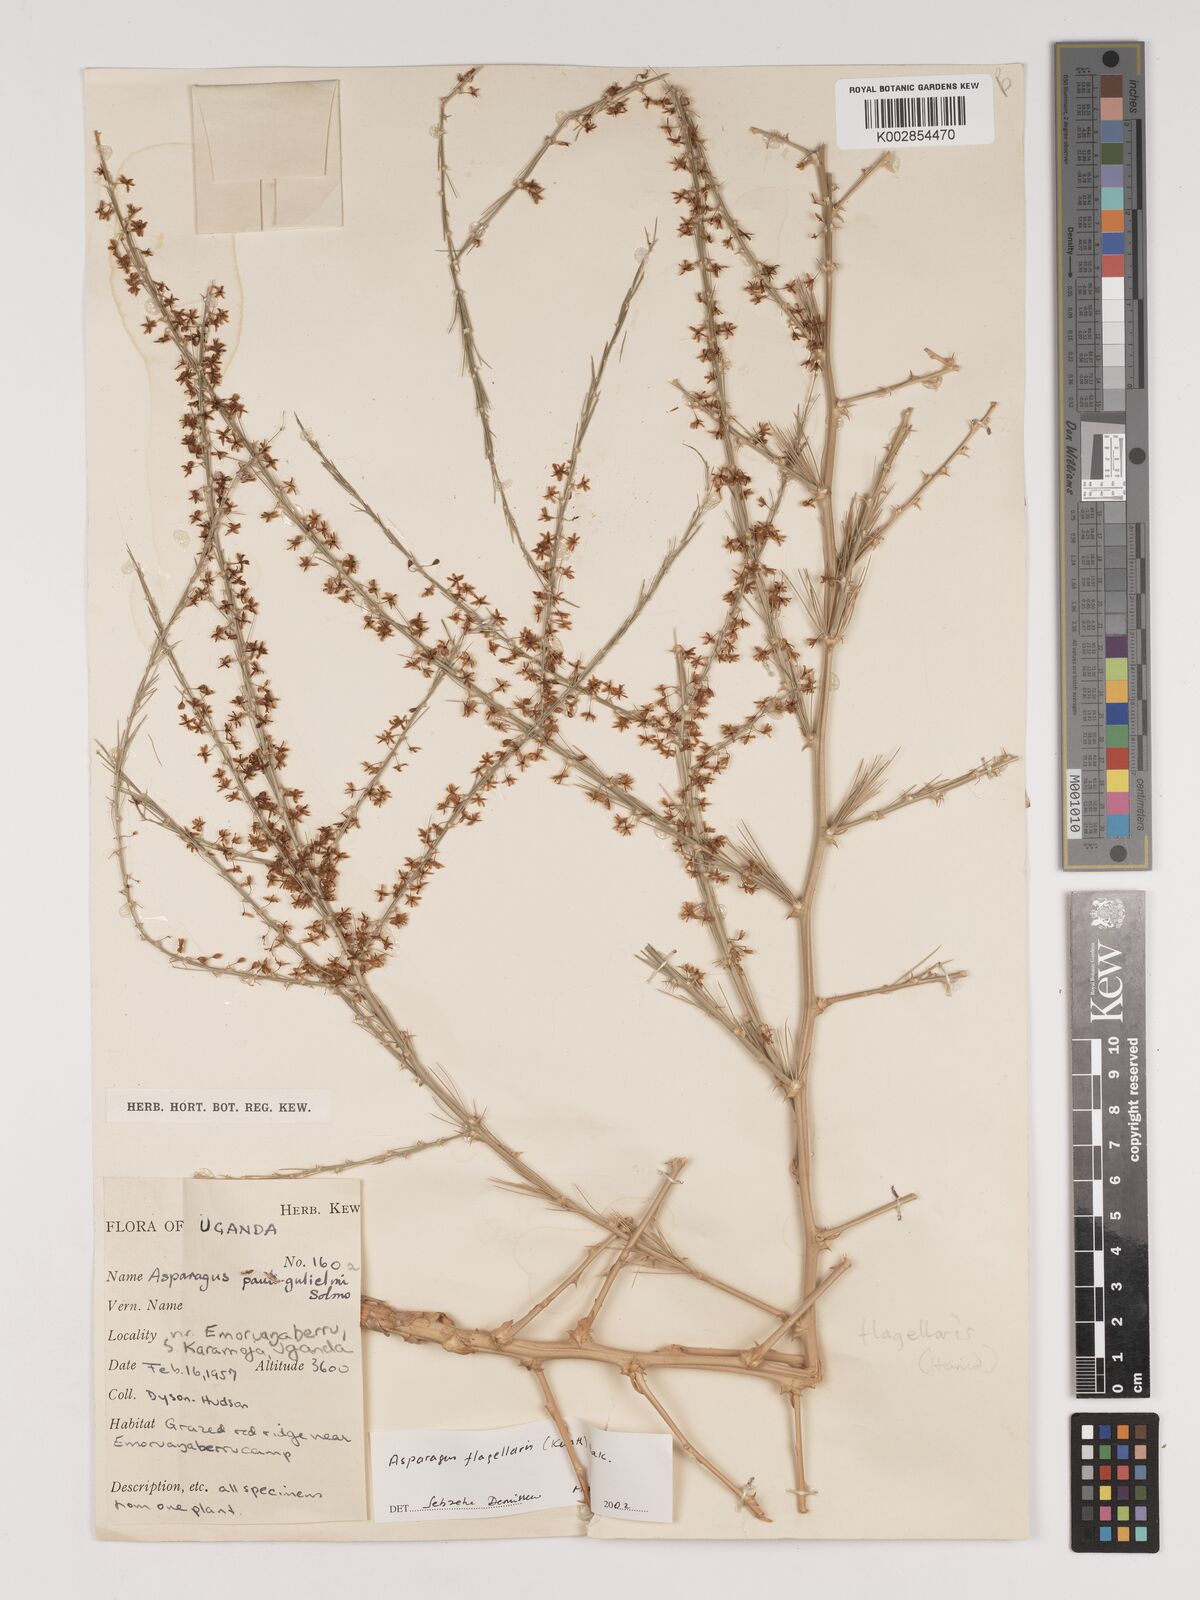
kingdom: Plantae
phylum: Tracheophyta
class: Liliopsida
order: Asparagales
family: Asparagaceae
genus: Asparagus
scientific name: Asparagus flagellaris
